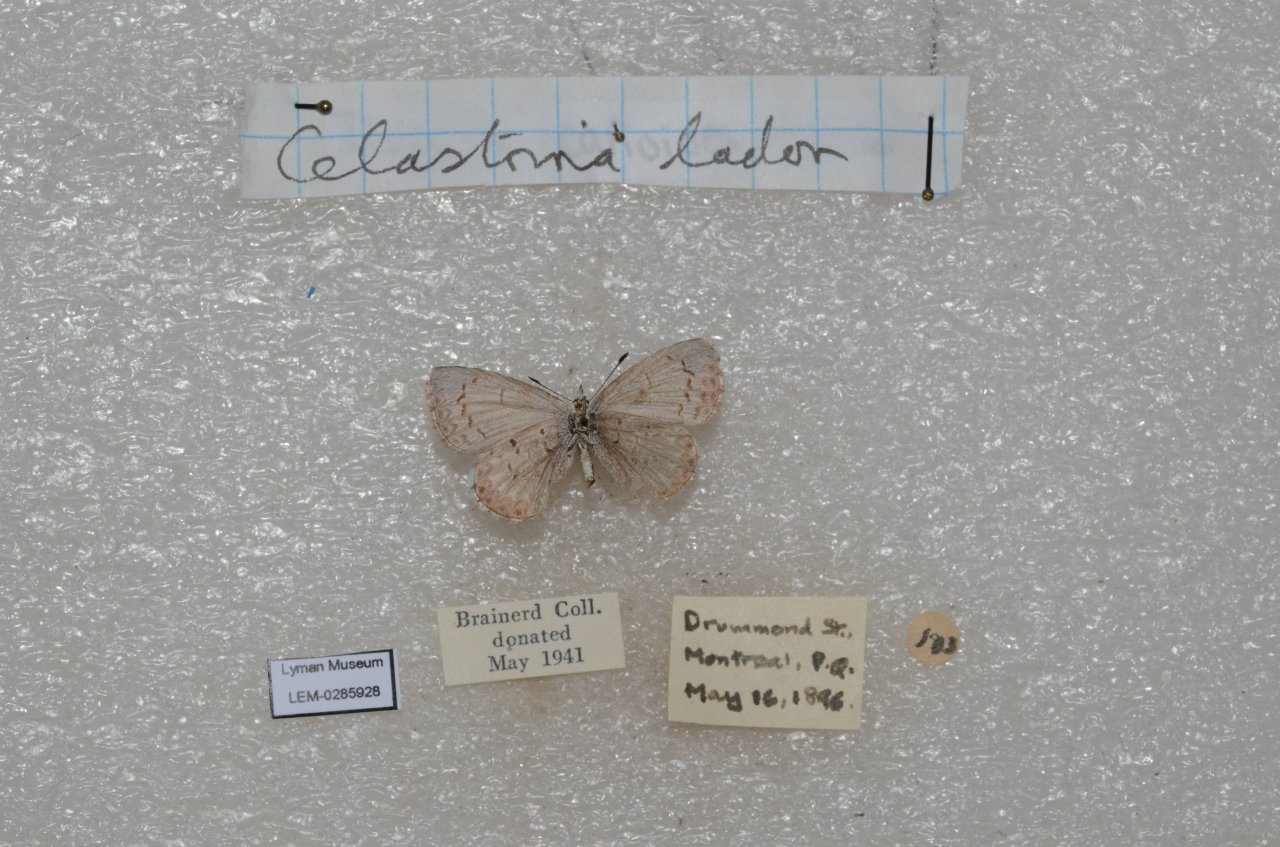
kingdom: Animalia
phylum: Arthropoda
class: Insecta
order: Lepidoptera
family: Lycaenidae
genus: Celastrina
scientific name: Celastrina lucia
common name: Northern Spring Azure
